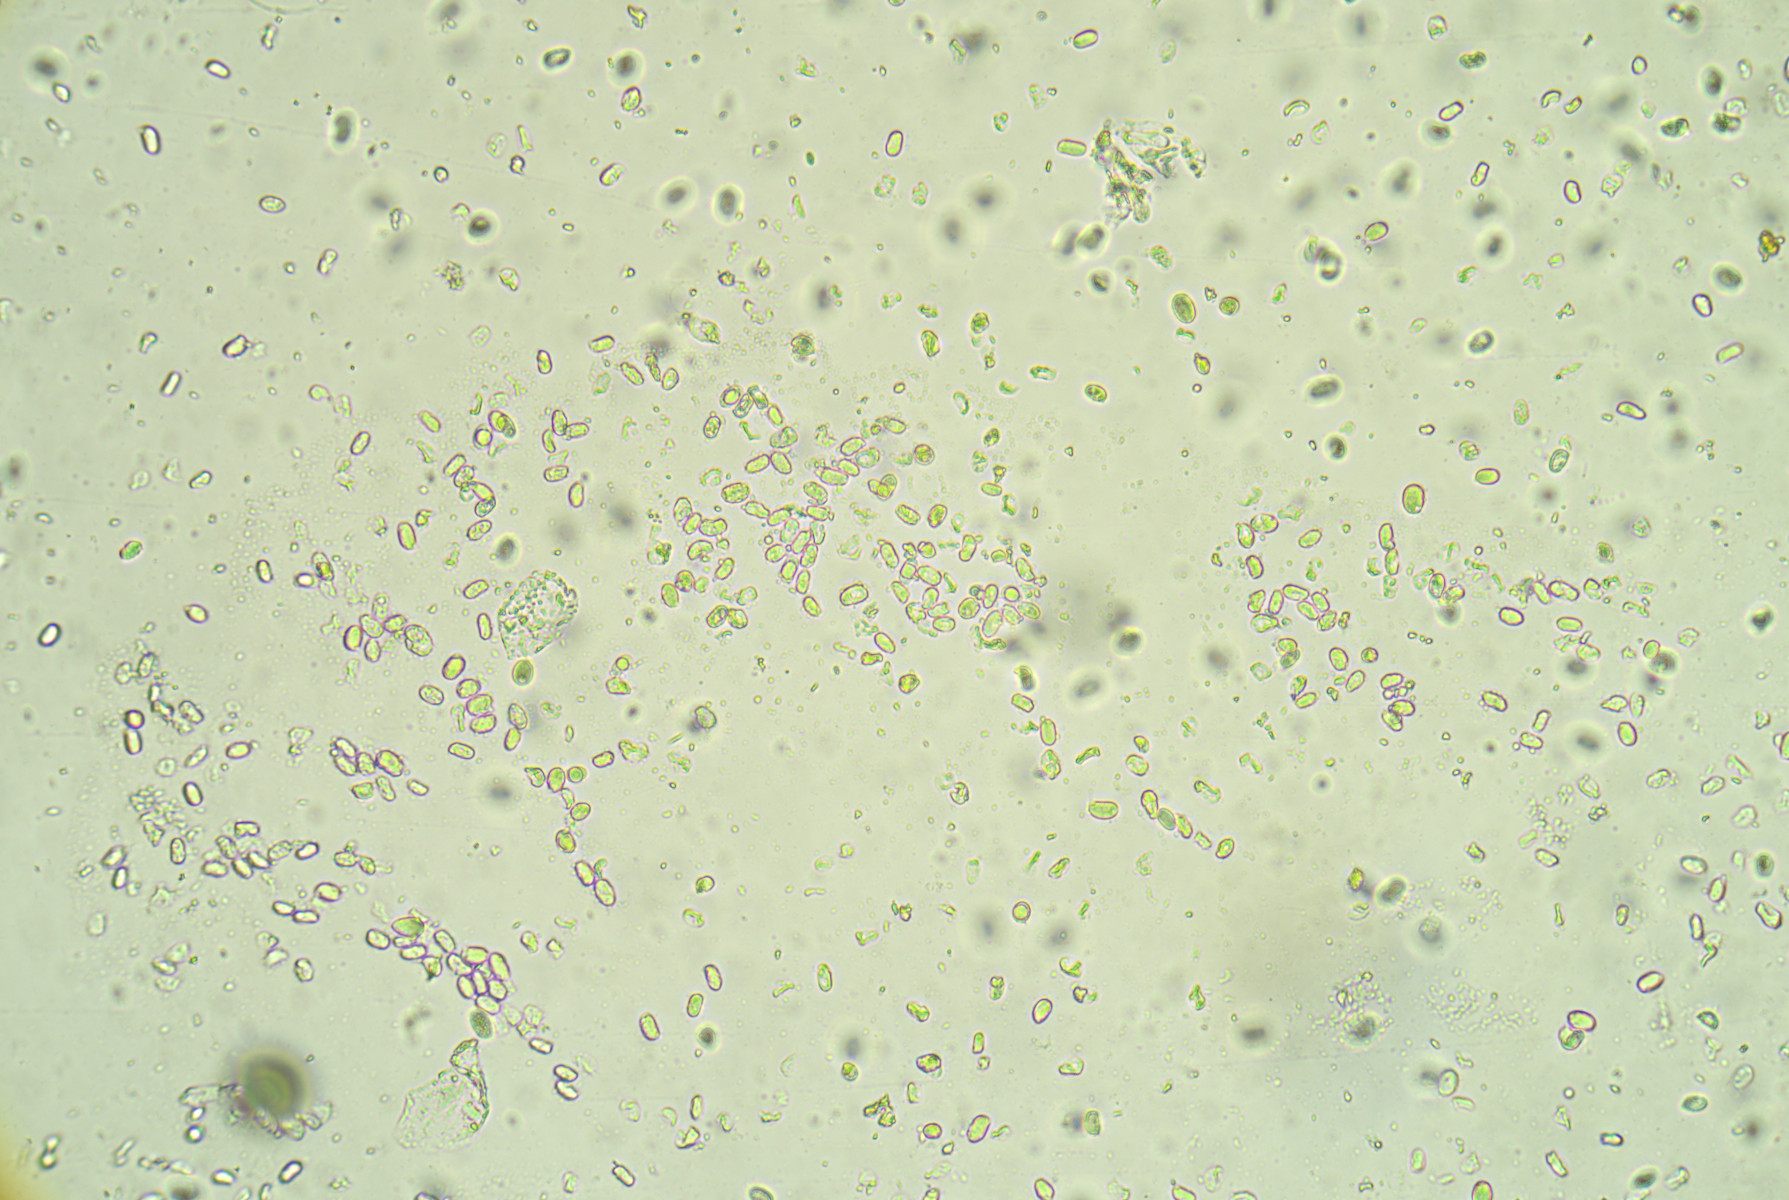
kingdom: Fungi
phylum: Basidiomycota
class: Agaricomycetes
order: Agaricales
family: Hygrophoraceae
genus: Hygrocybe
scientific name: Hygrocybe
